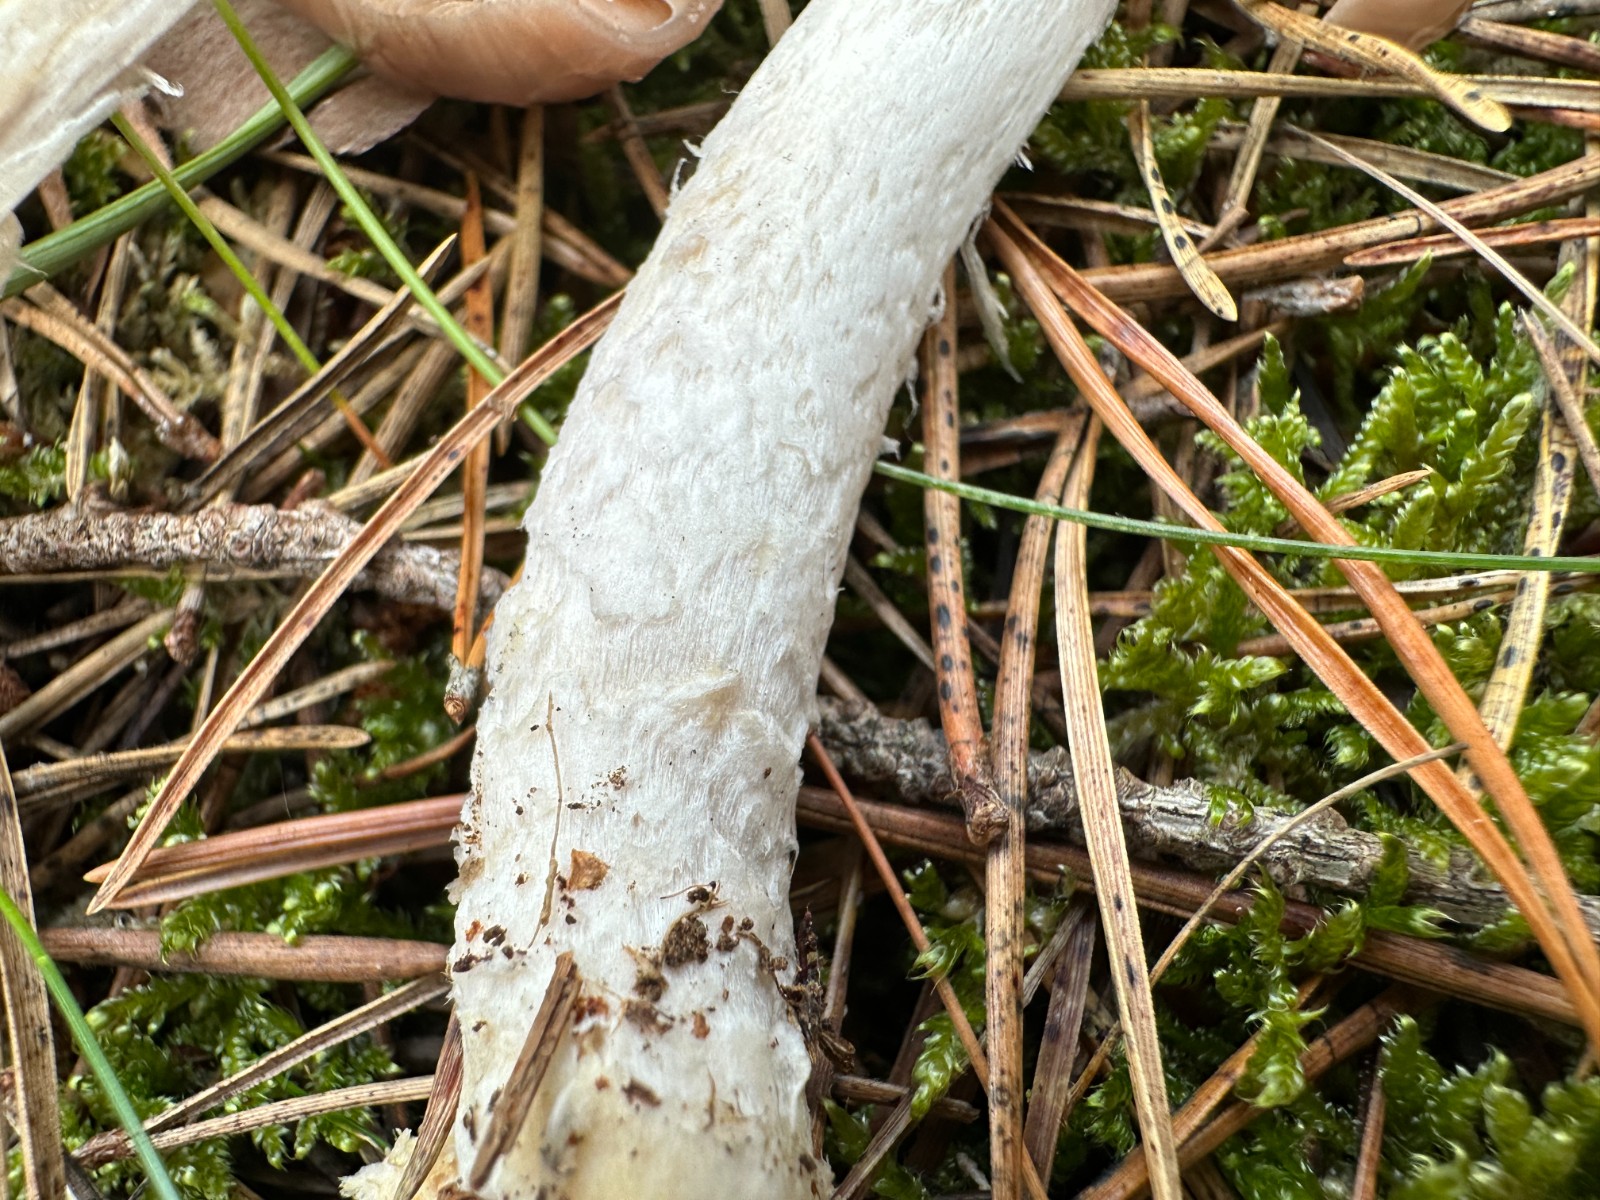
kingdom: Fungi
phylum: Basidiomycota
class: Agaricomycetes
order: Agaricales
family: Cortinariaceae
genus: Cortinarius
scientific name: Cortinarius
